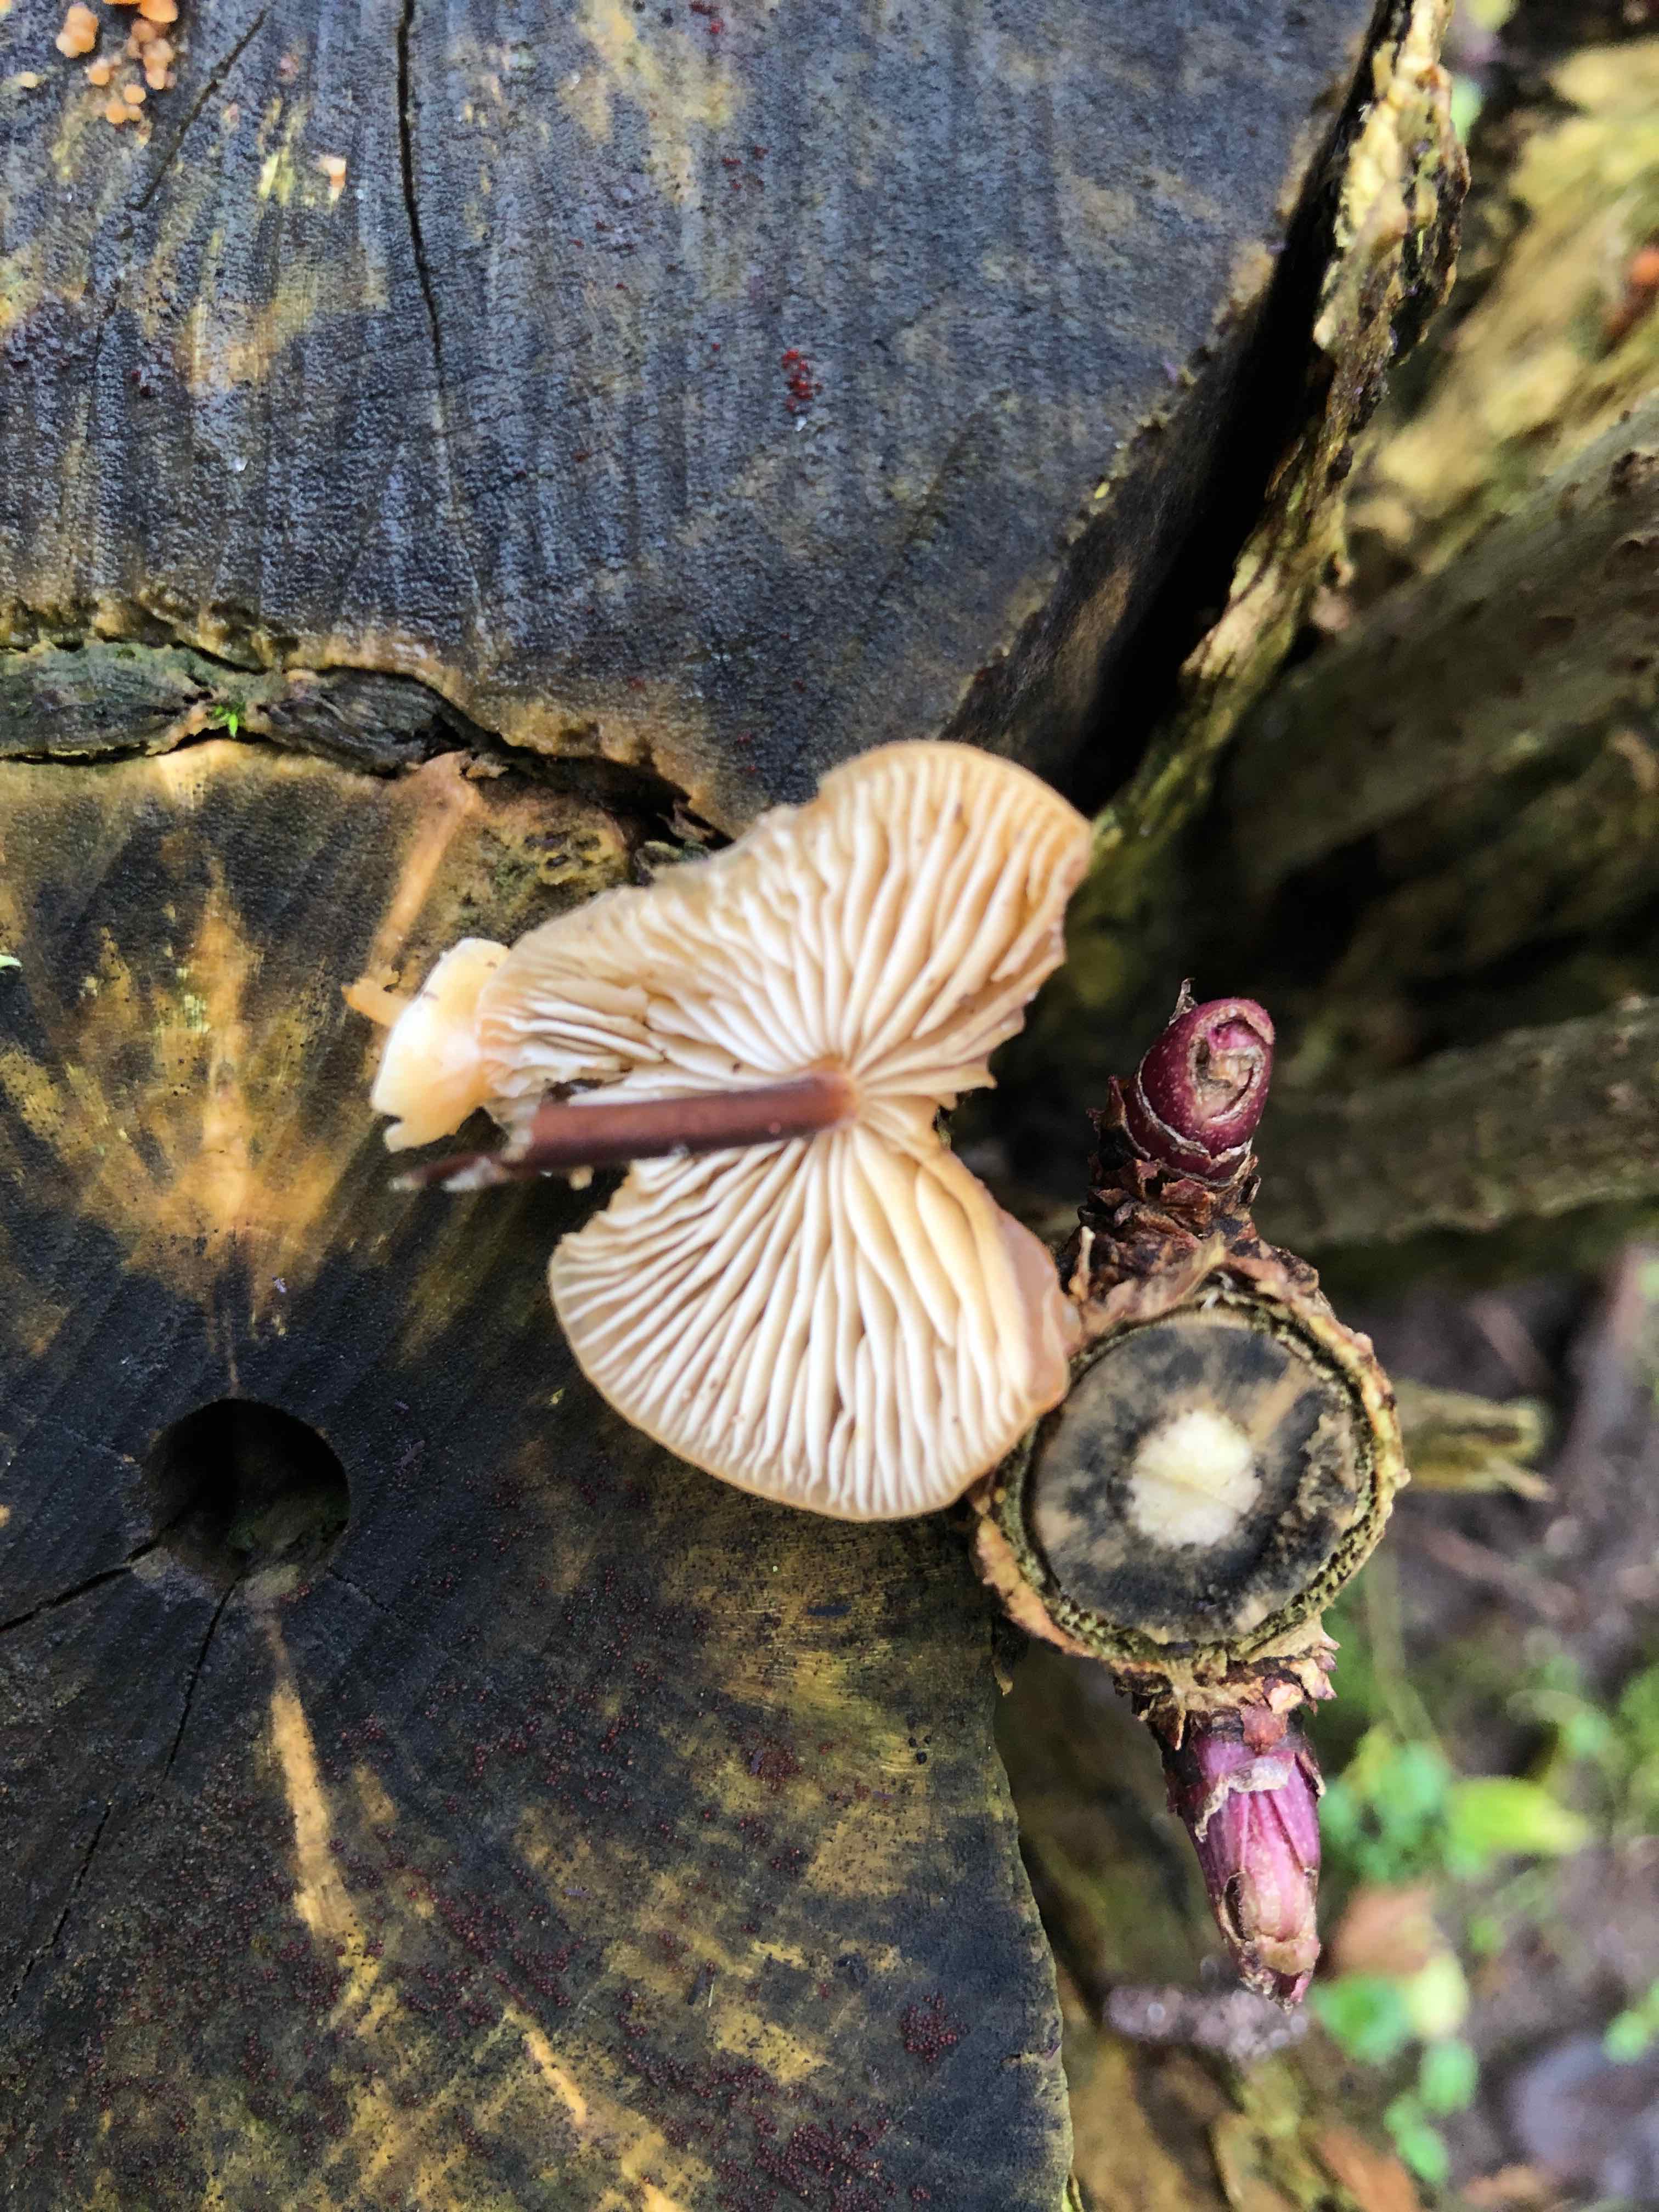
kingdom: Fungi
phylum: Basidiomycota
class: Agaricomycetes
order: Agaricales
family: Physalacriaceae
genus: Flammulina
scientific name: Flammulina velutipes
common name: gul fløjlsfod
